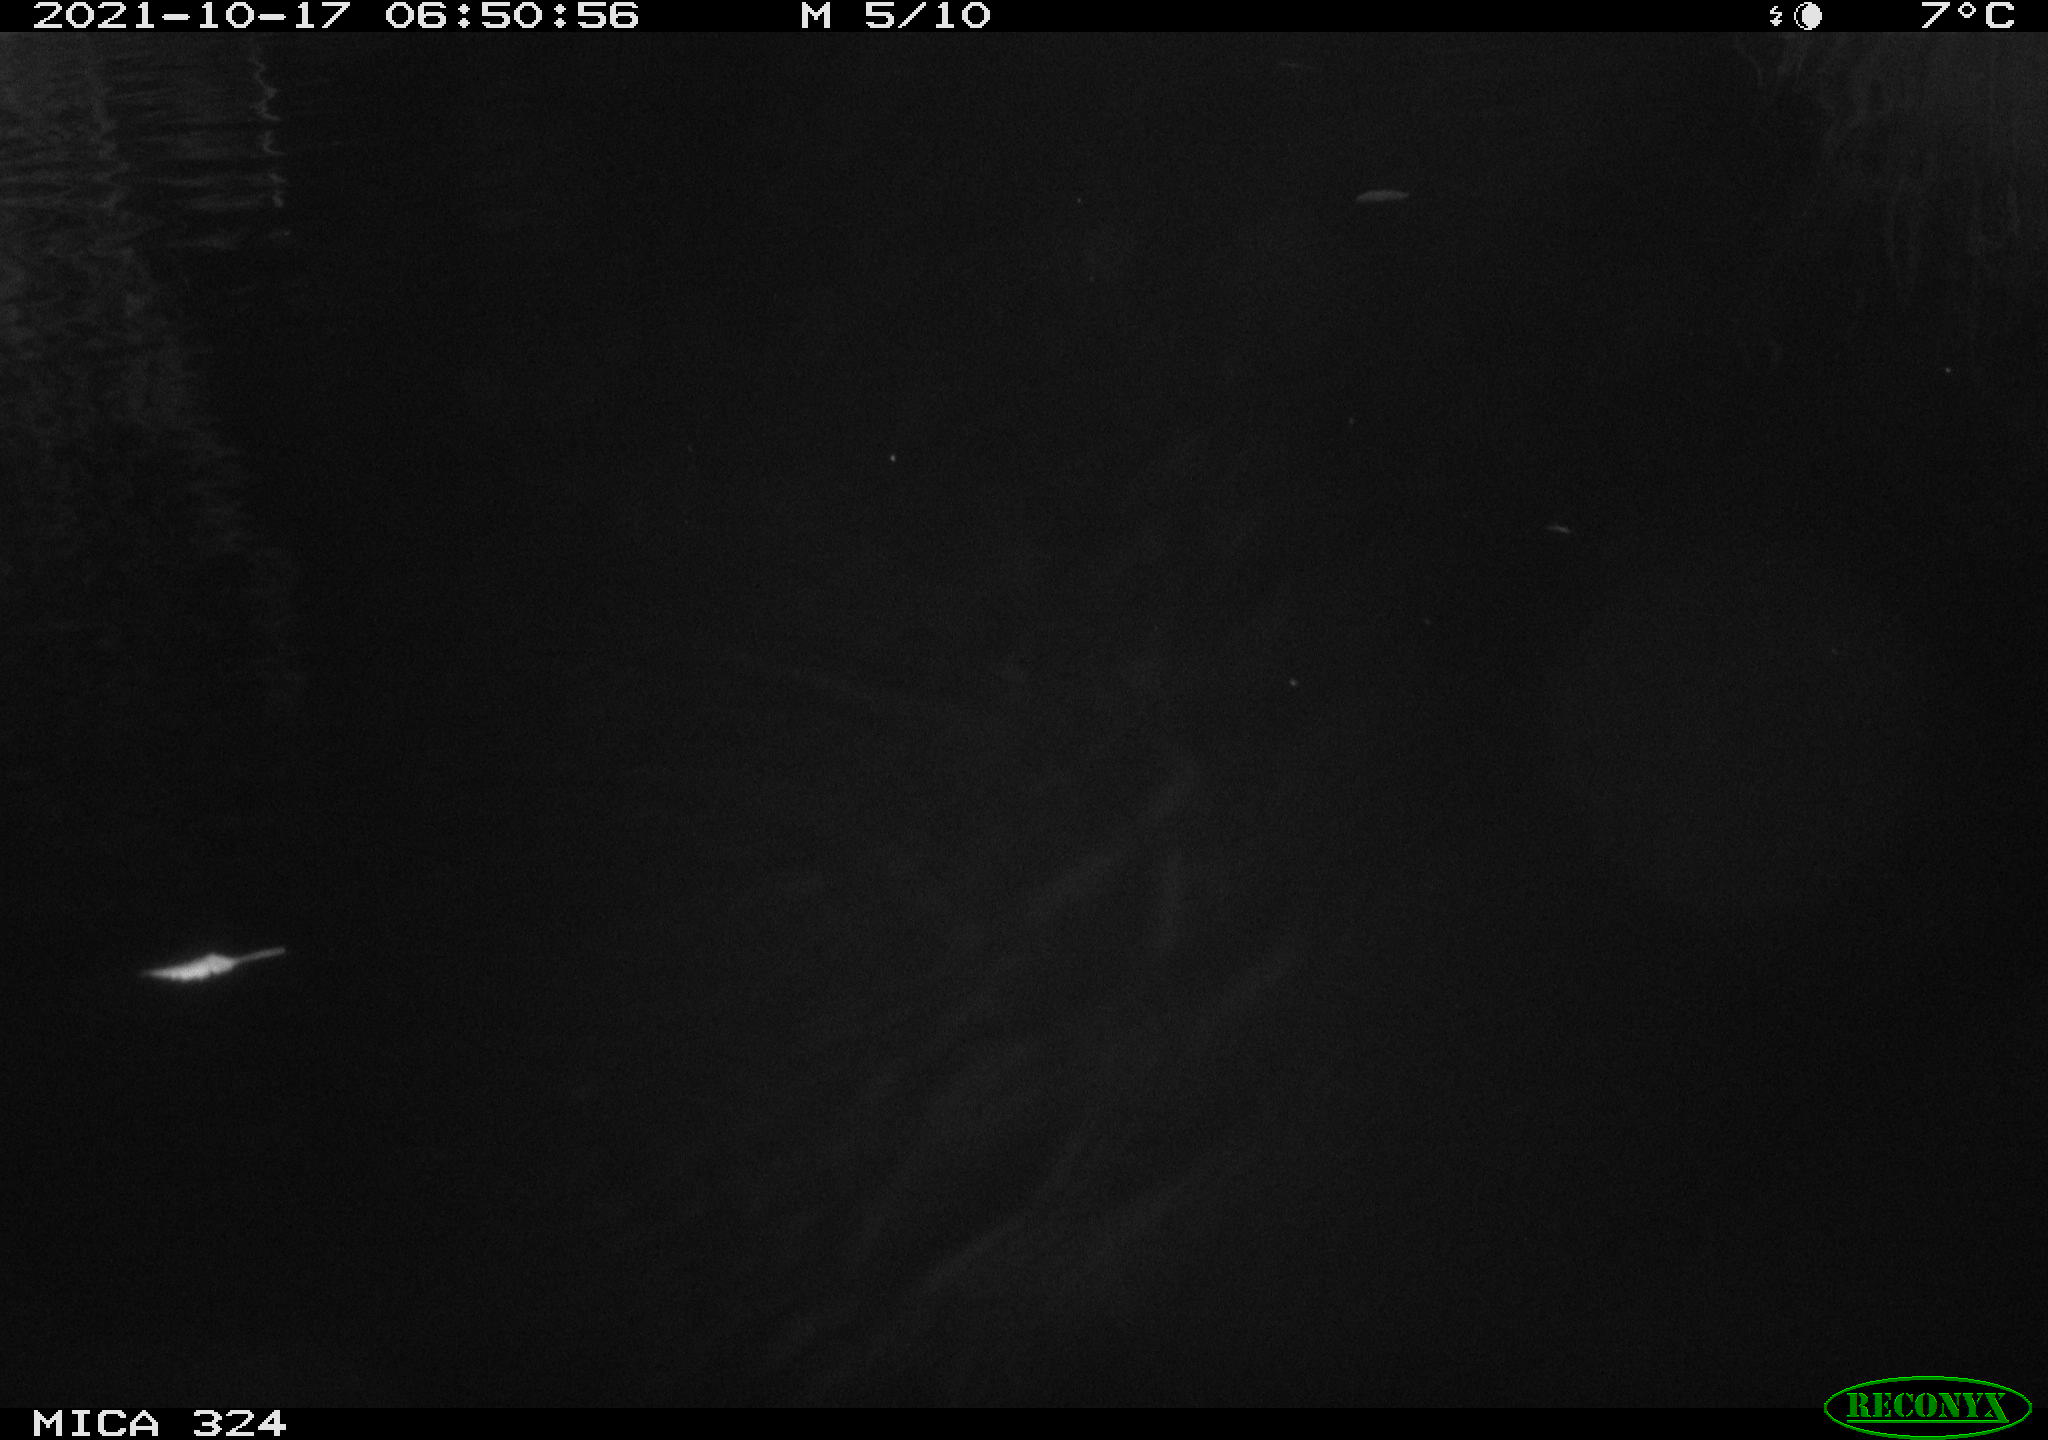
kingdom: Animalia
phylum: Chordata
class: Mammalia
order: Rodentia
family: Cricetidae
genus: Ondatra
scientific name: Ondatra zibethicus
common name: Muskrat
